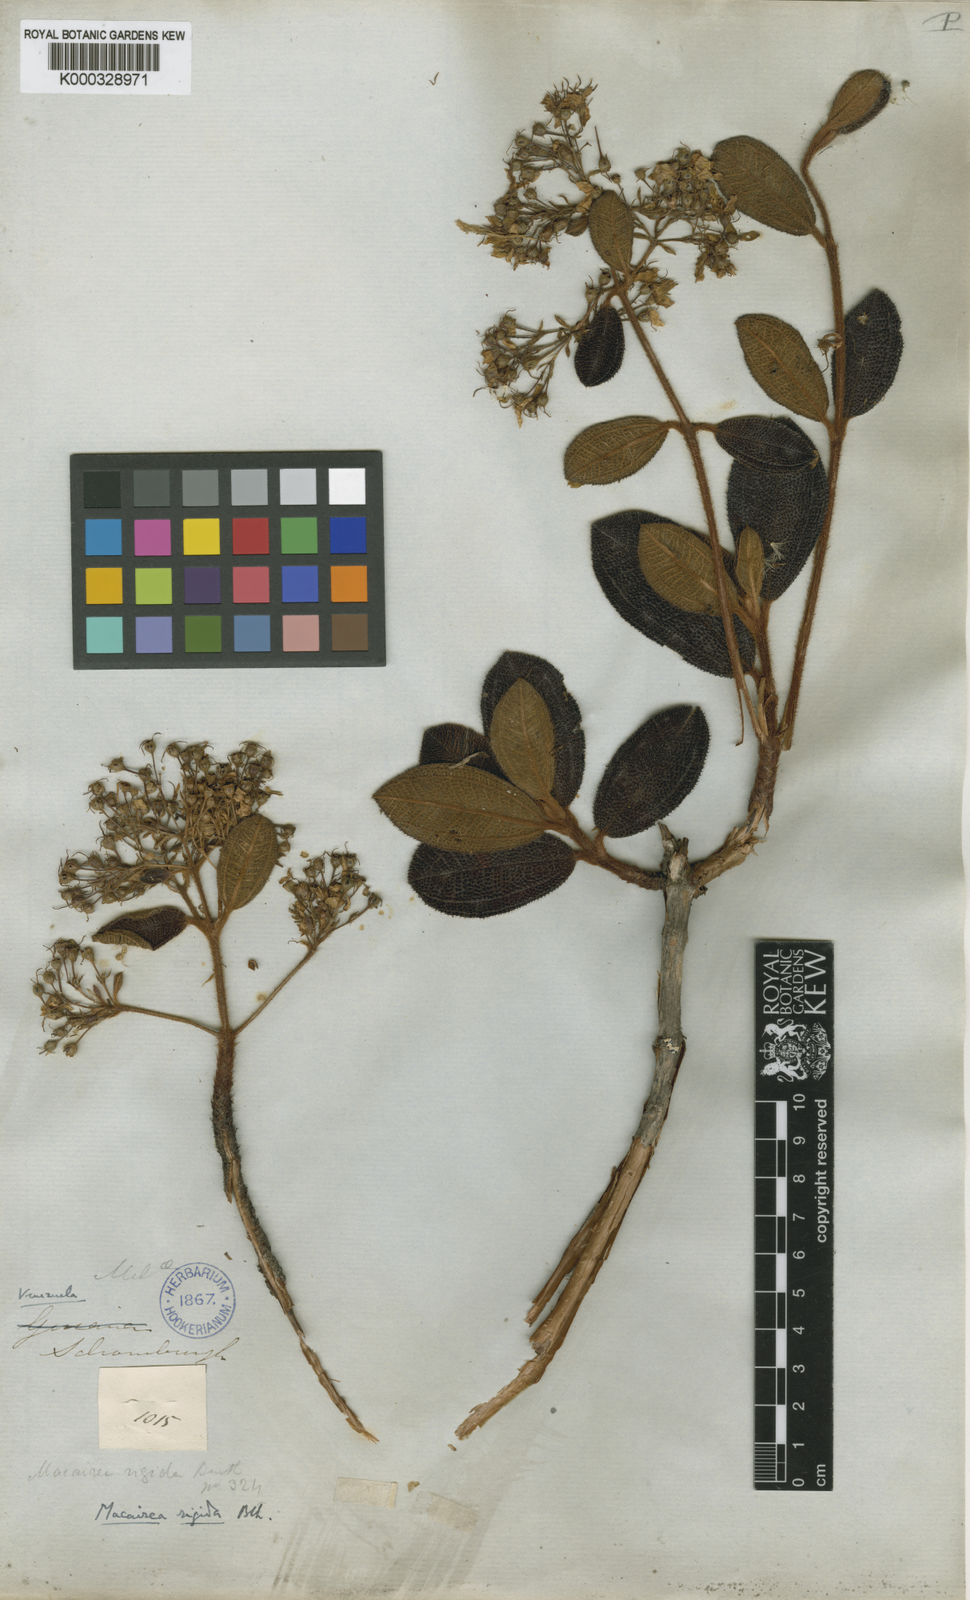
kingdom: Plantae
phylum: Tracheophyta
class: Magnoliopsida
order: Myrtales
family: Melastomataceae
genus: Macairea
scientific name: Macairea rigida
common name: Rigid macairea
